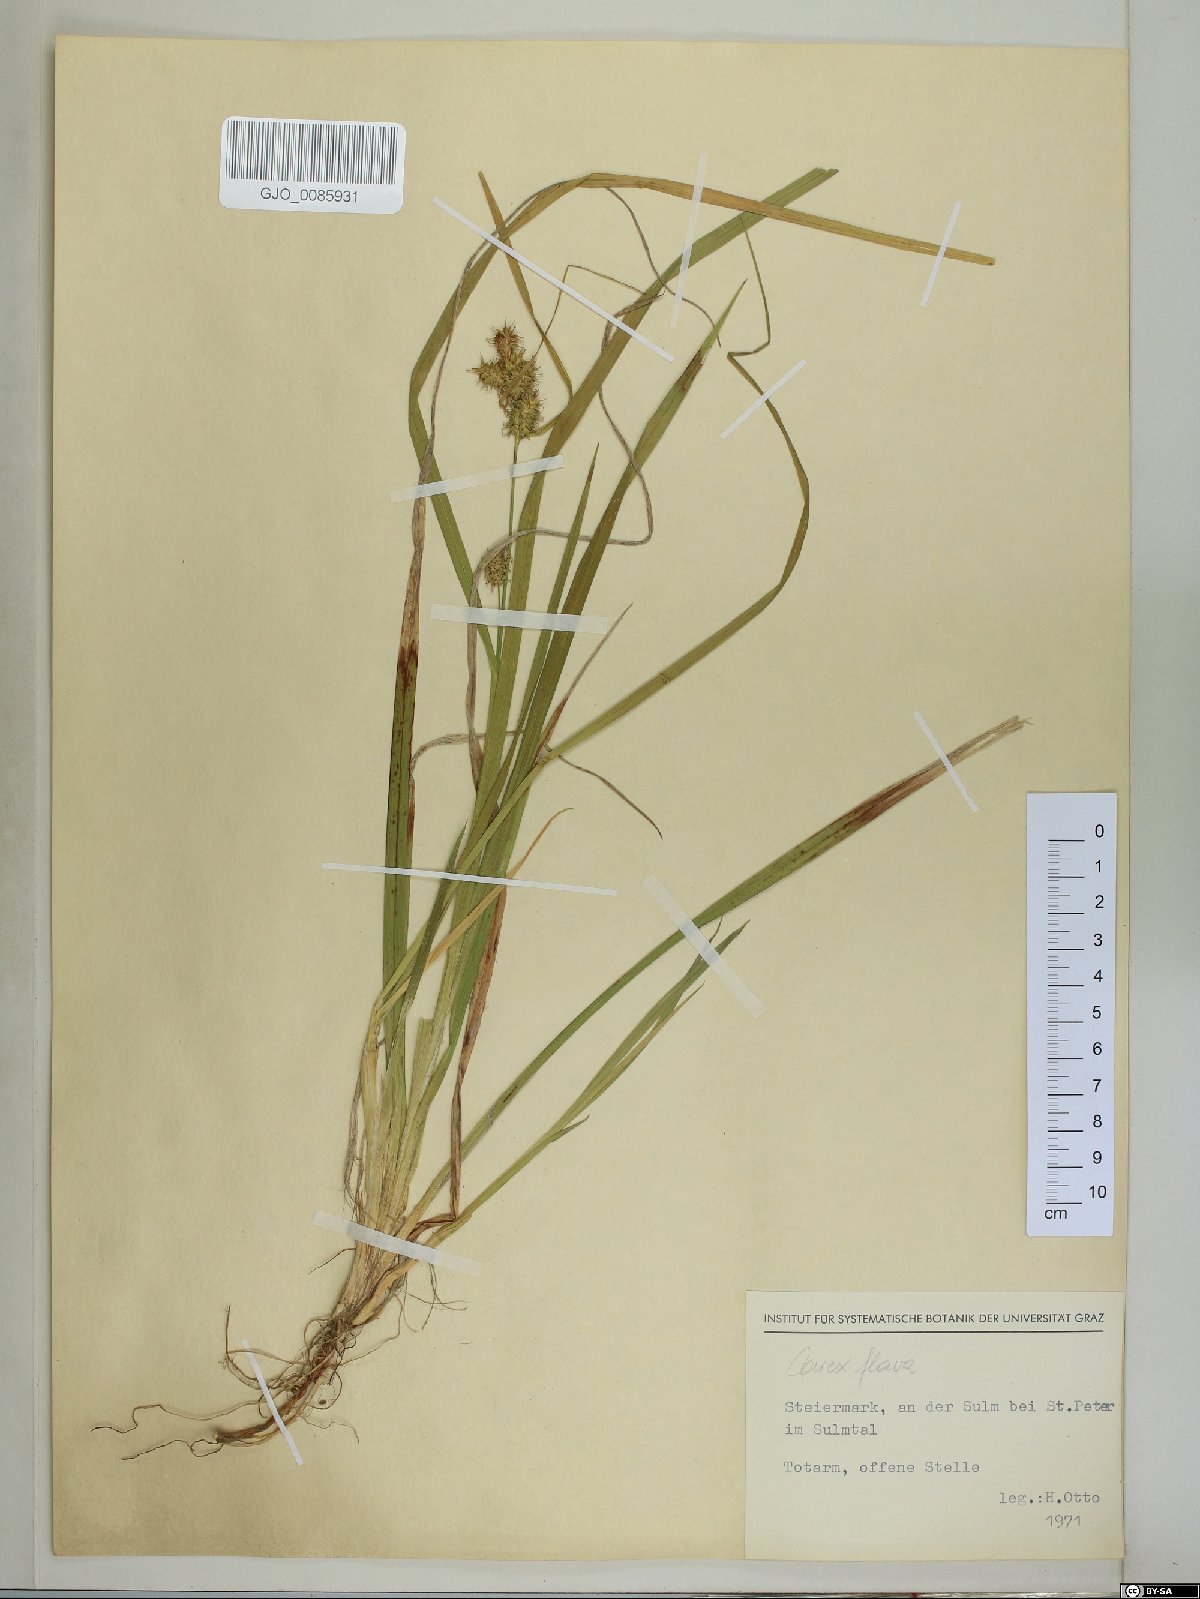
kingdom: Plantae
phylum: Tracheophyta
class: Liliopsida
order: Poales
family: Cyperaceae
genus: Carex
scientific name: Carex flava
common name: Large yellow-sedge
